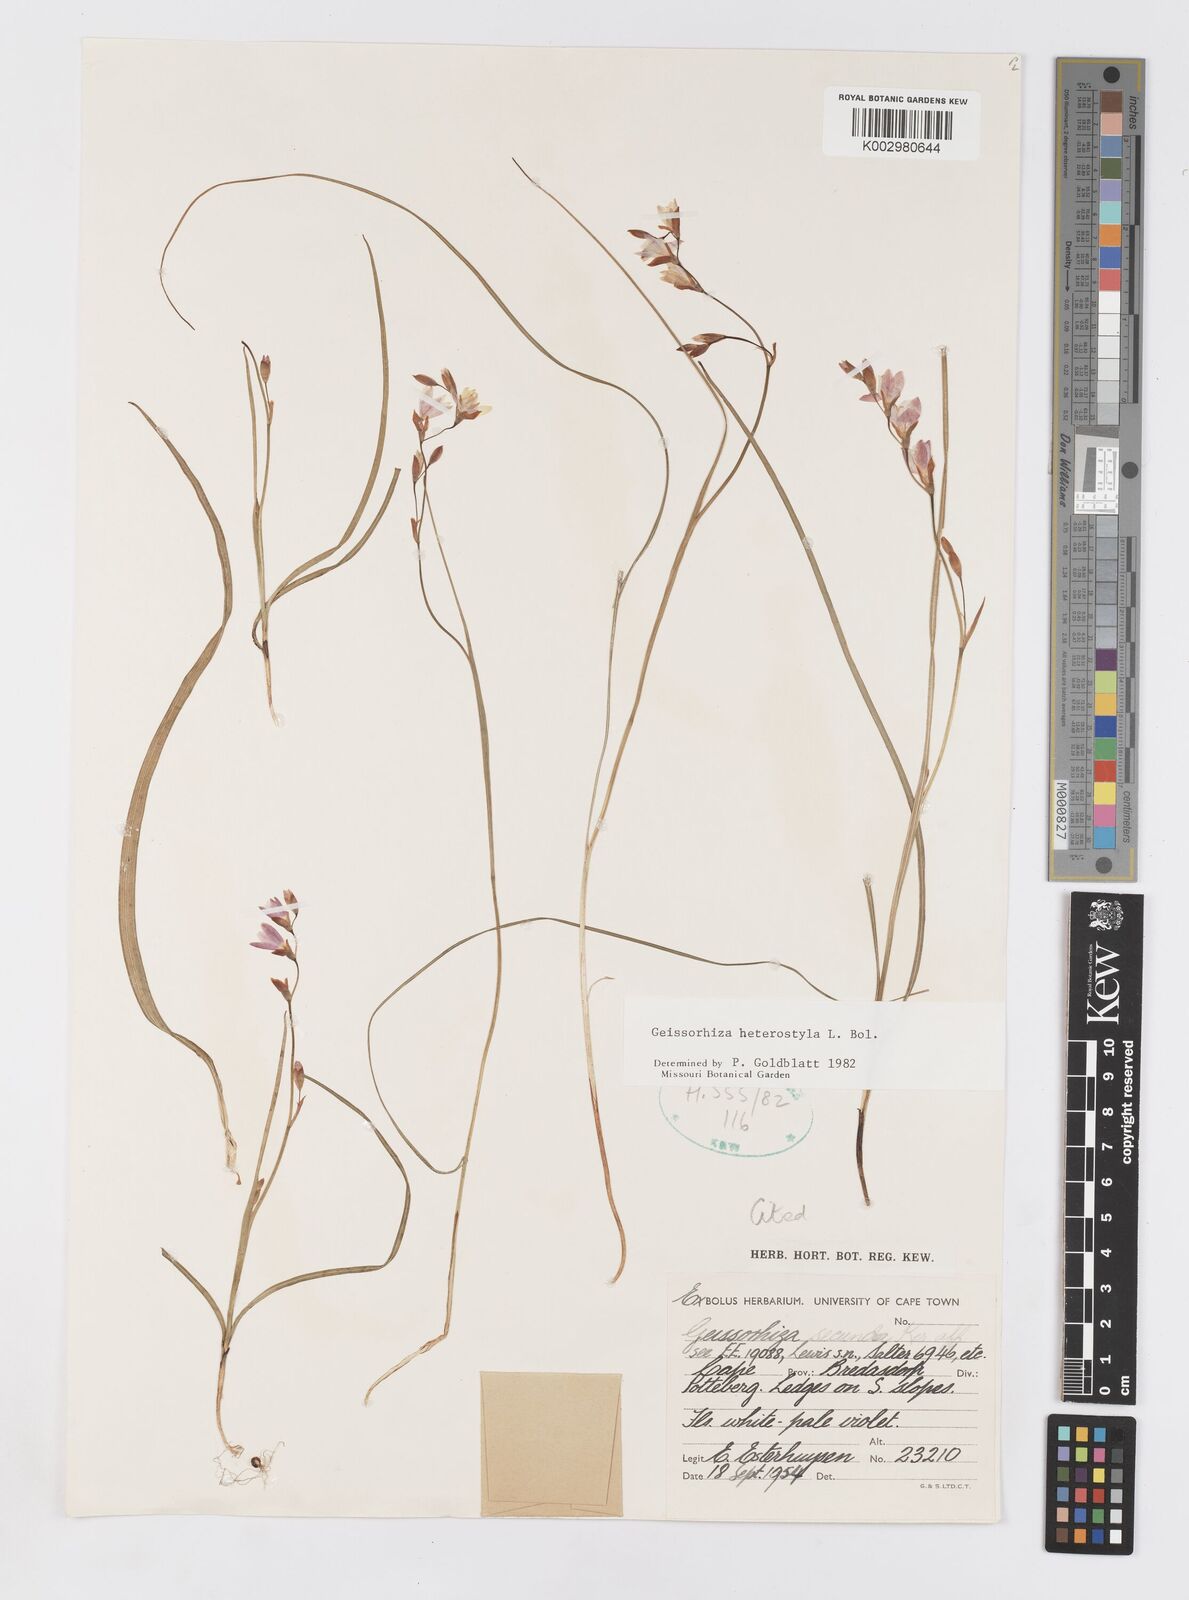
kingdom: Plantae
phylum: Tracheophyta
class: Liliopsida
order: Asparagales
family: Iridaceae
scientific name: Iridaceae
